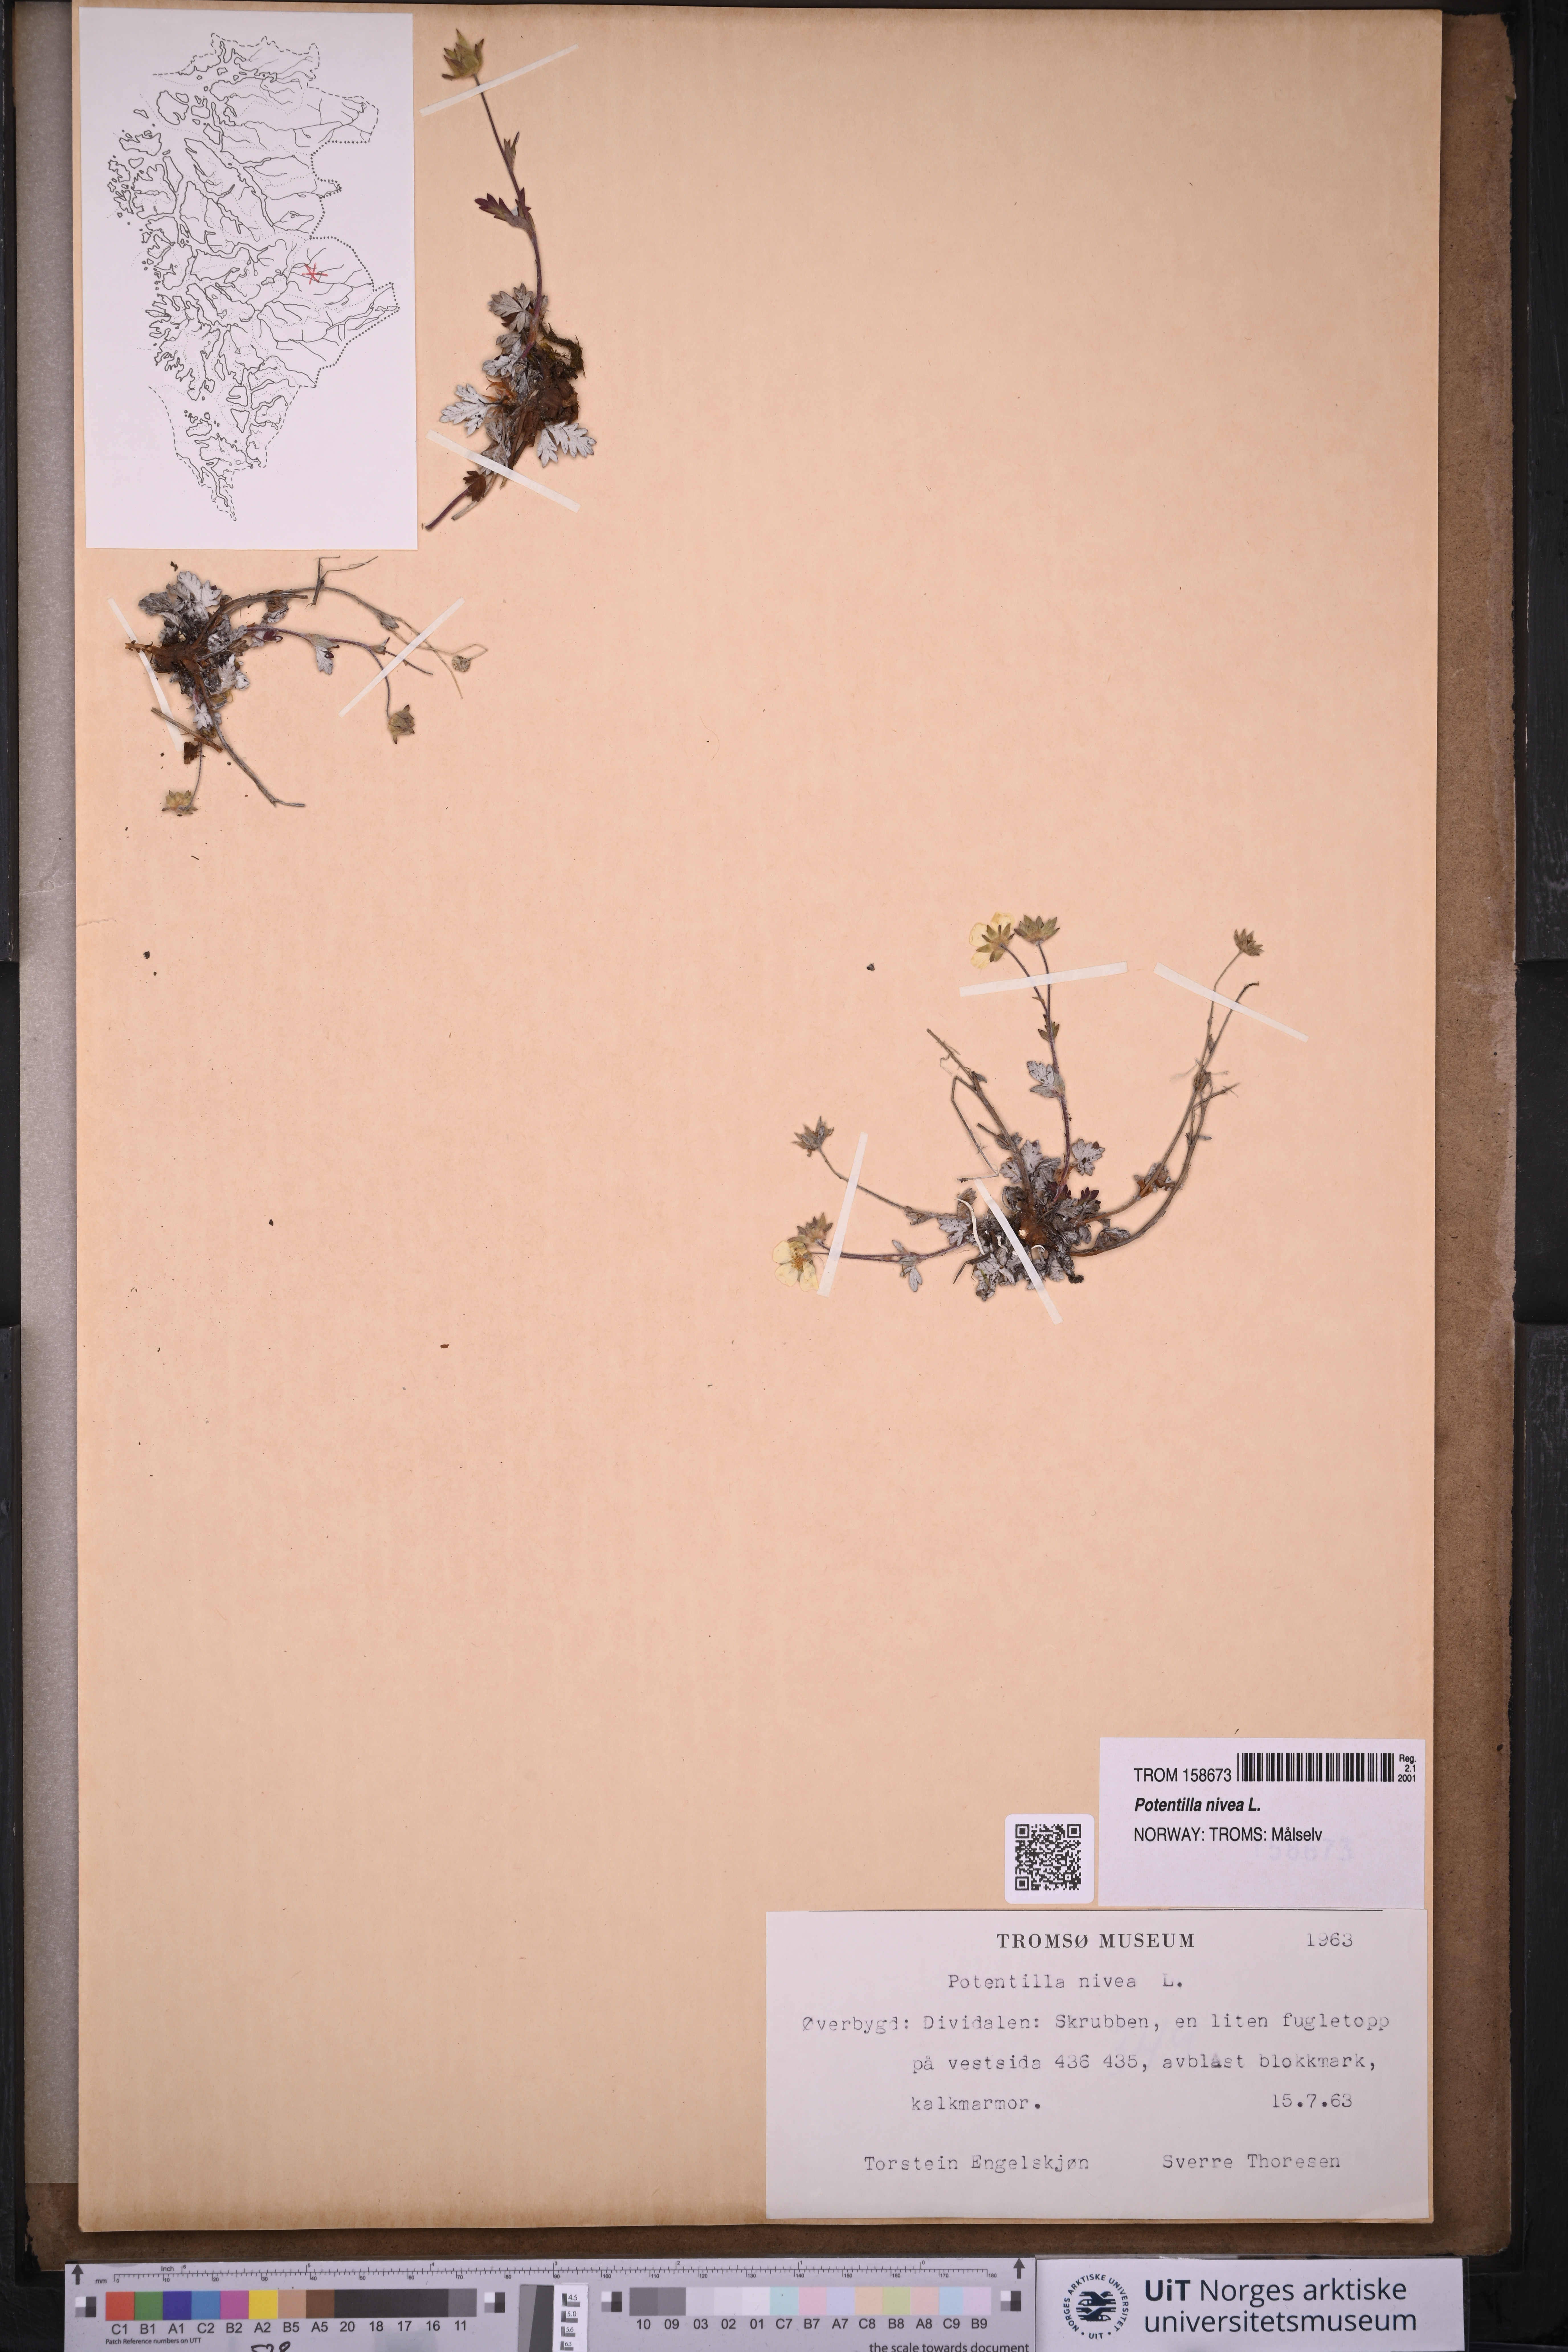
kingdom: Plantae
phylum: Tracheophyta
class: Magnoliopsida
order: Rosales
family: Rosaceae
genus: Potentilla
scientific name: Potentilla arenosa
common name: Bluff cinquefoil
